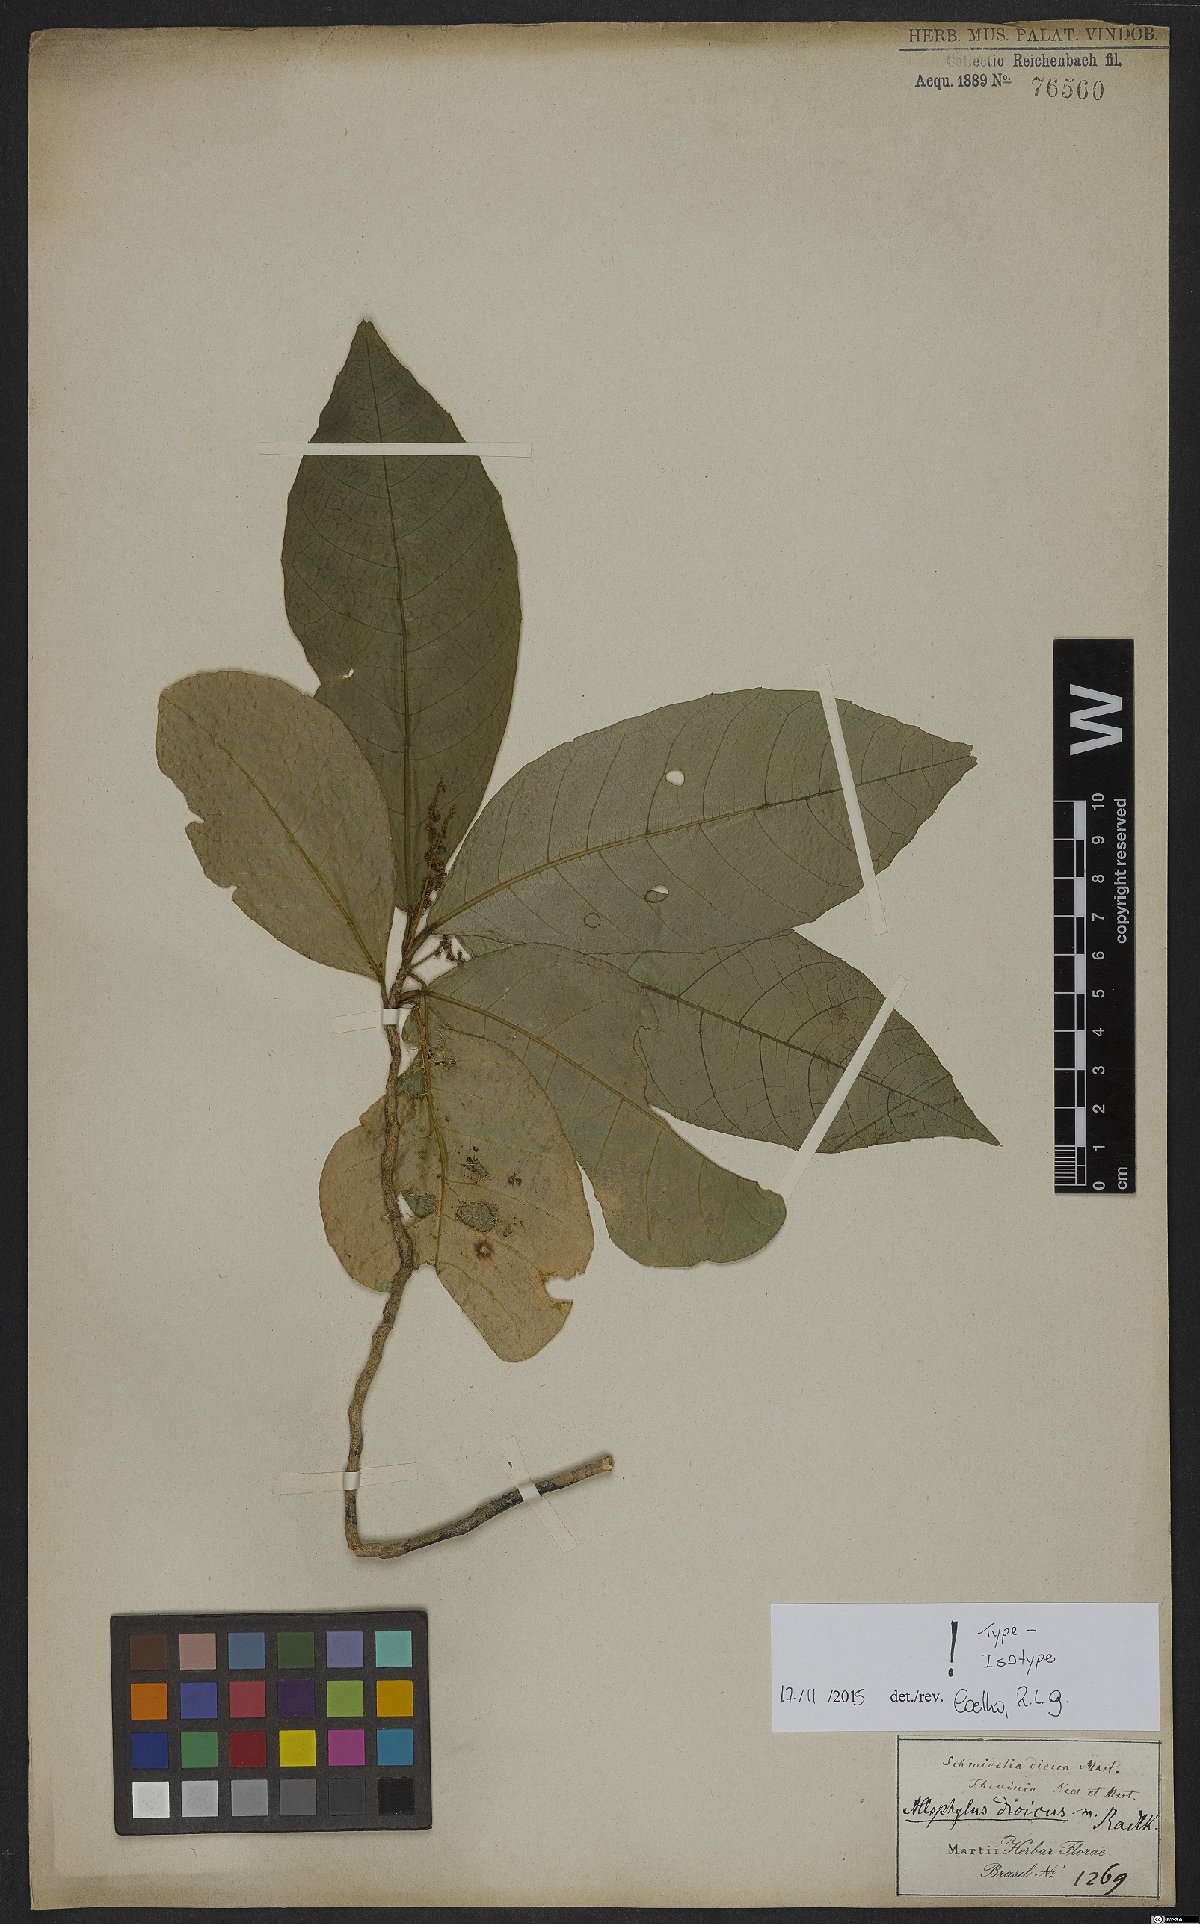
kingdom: Plantae
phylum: Tracheophyta
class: Magnoliopsida
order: Sapindales
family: Sapindaceae
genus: Allophylus
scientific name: Allophylus dioicus
